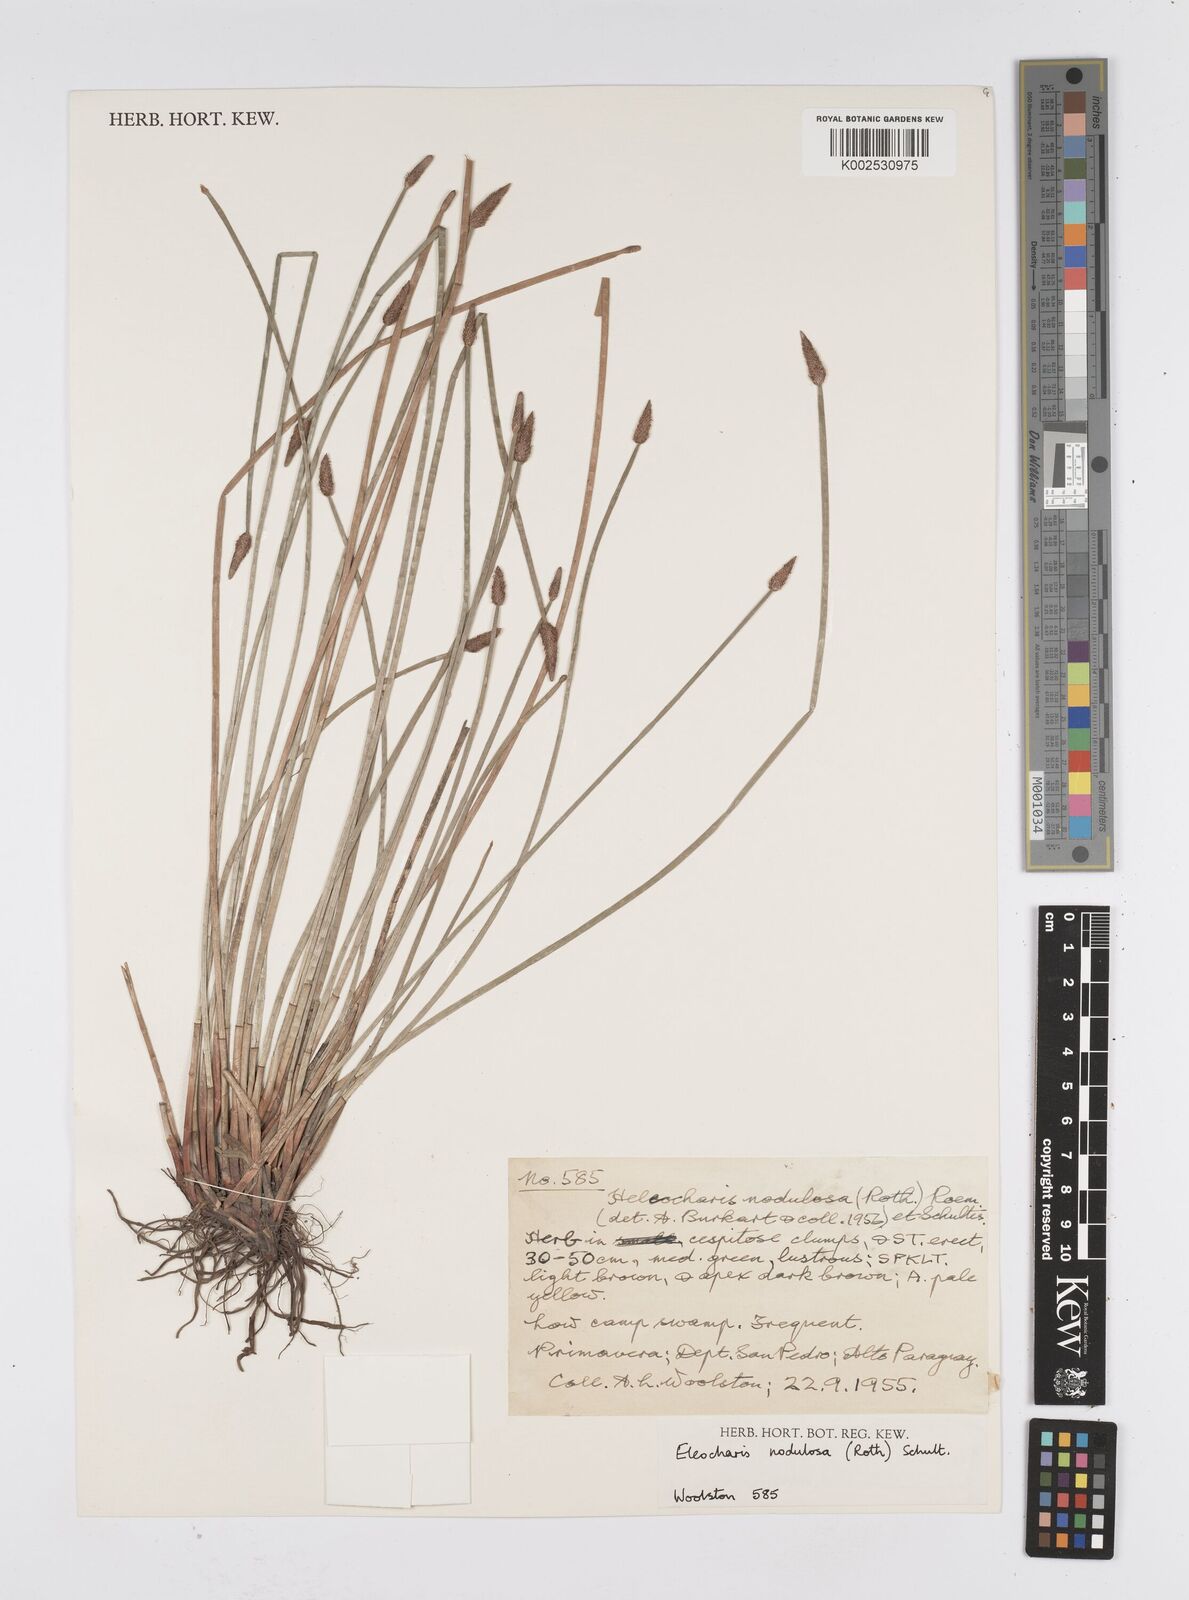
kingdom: Plantae
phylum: Tracheophyta
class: Liliopsida
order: Poales
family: Cyperaceae
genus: Eleocharis
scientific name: Eleocharis montana
